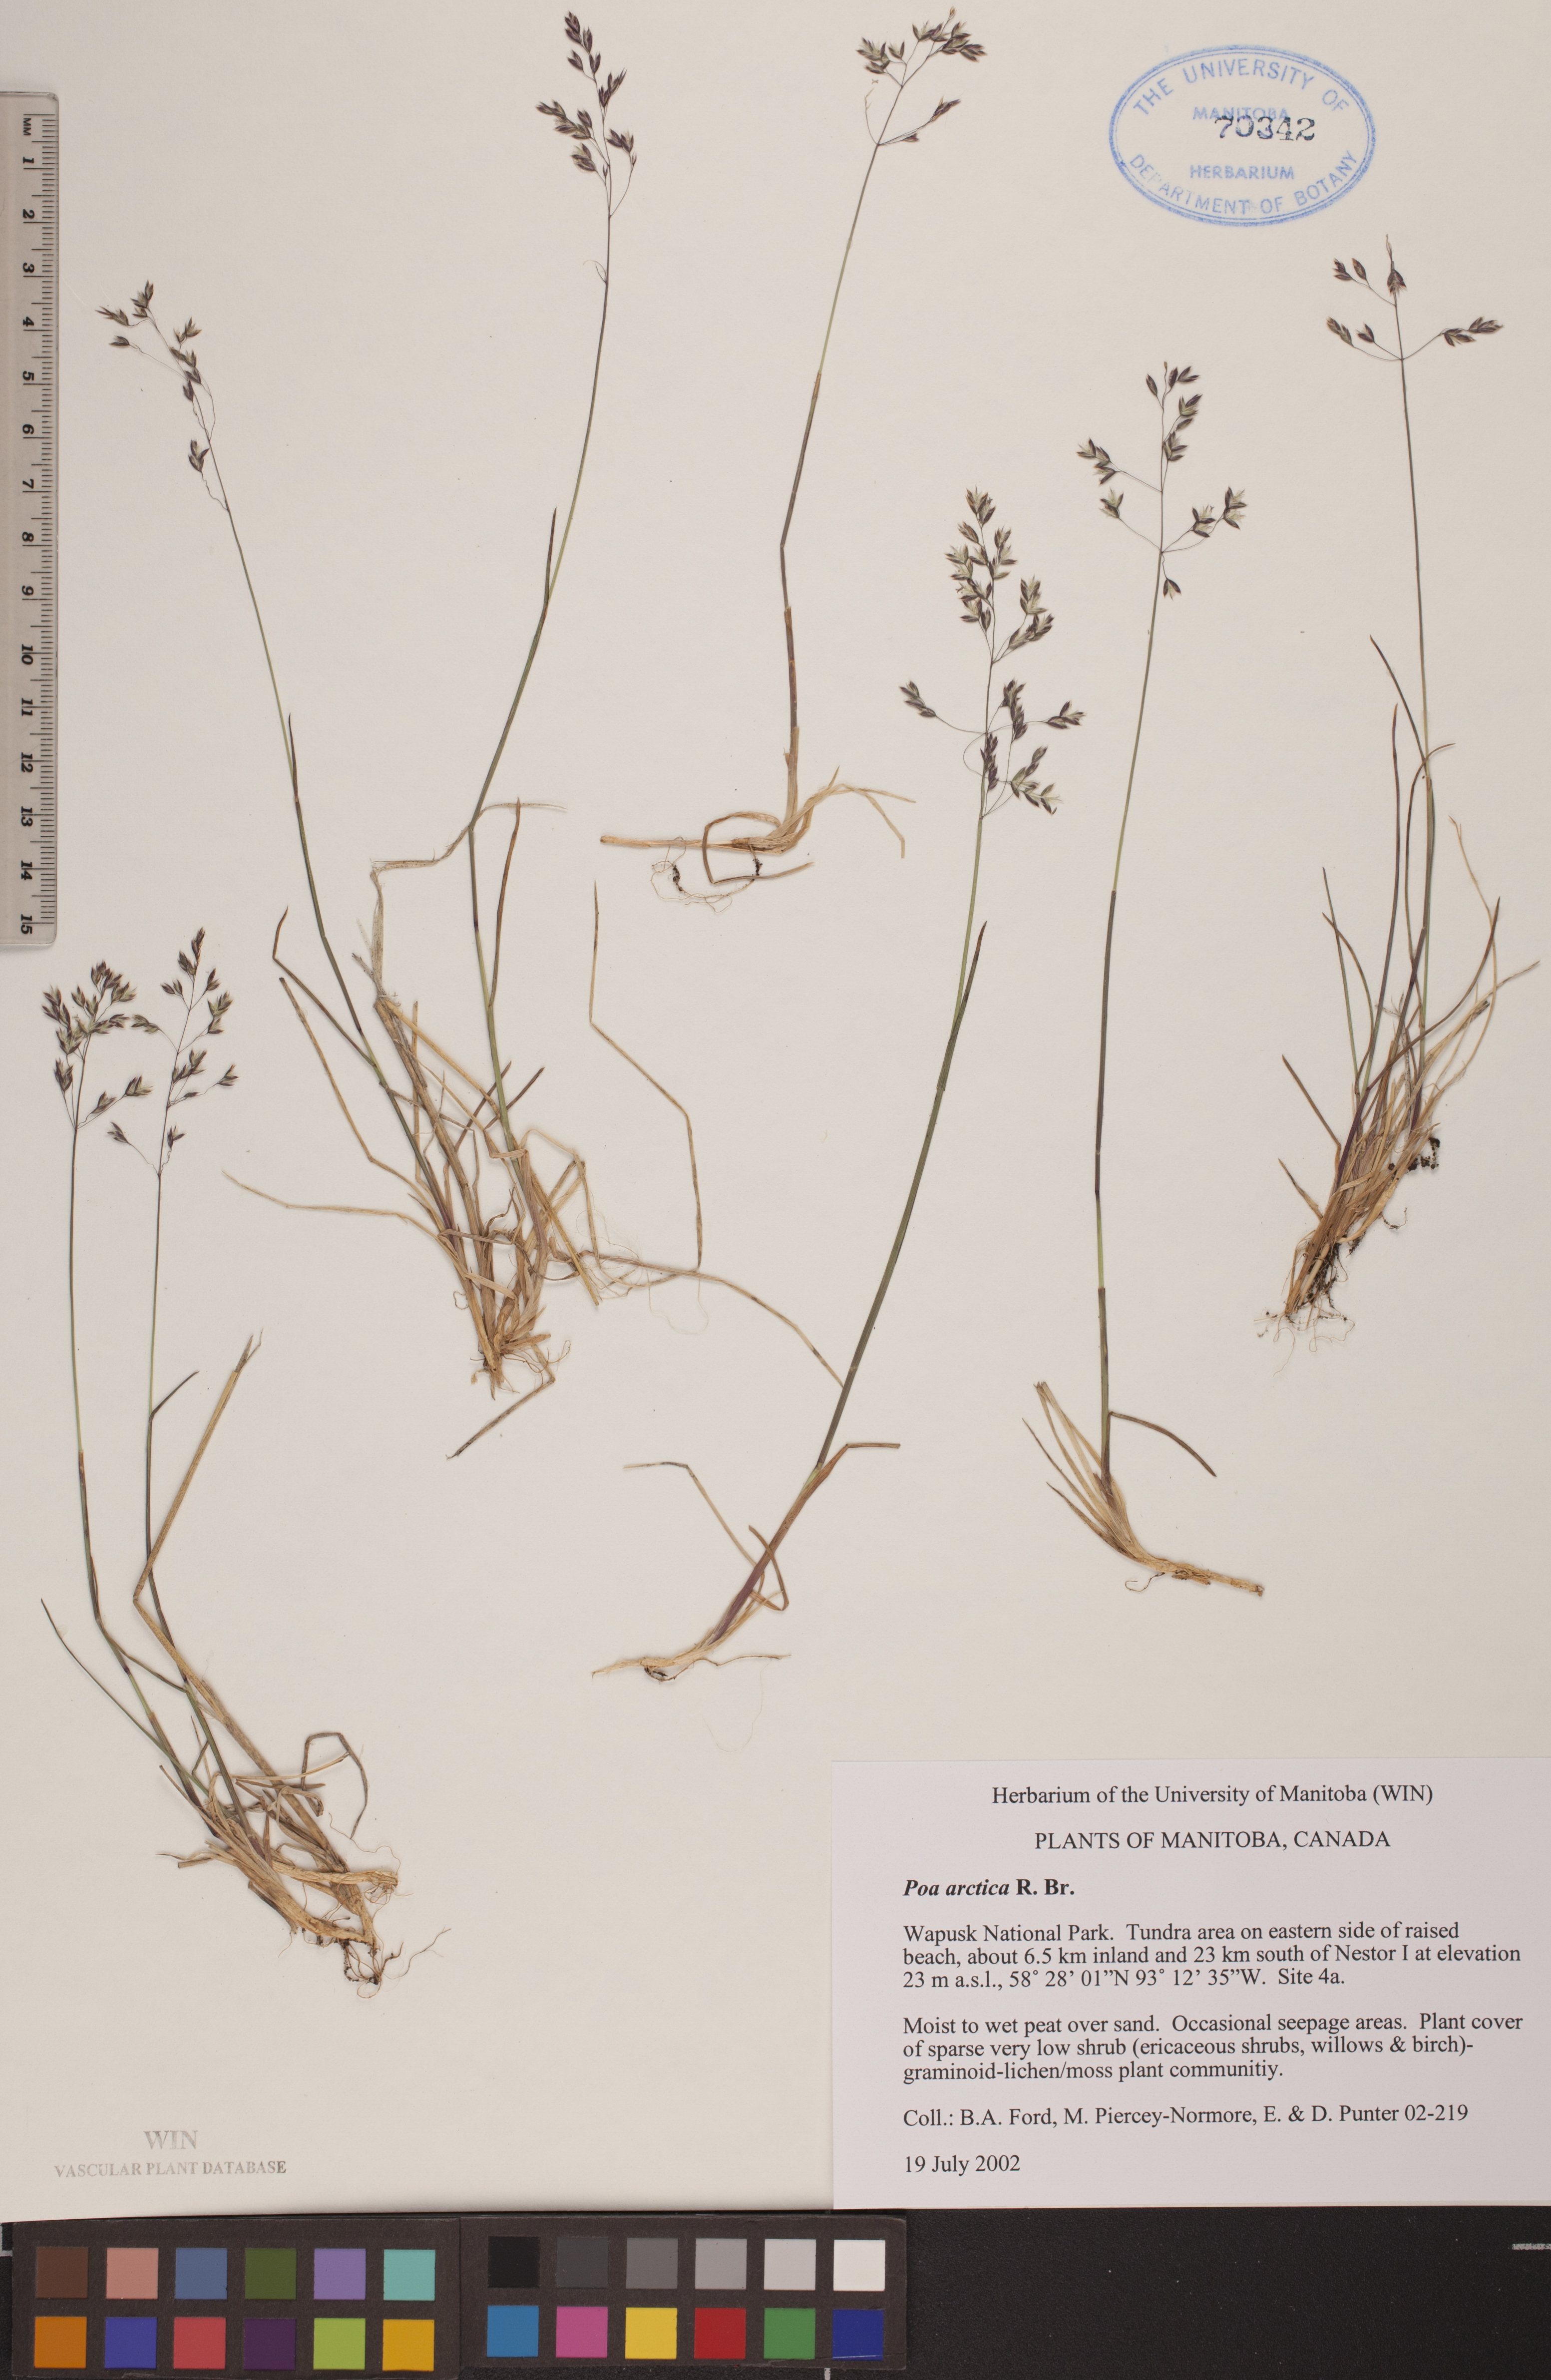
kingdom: Plantae
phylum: Tracheophyta
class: Liliopsida
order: Poales
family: Poaceae
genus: Poa
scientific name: Poa arctica
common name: Arctic bluegrass
